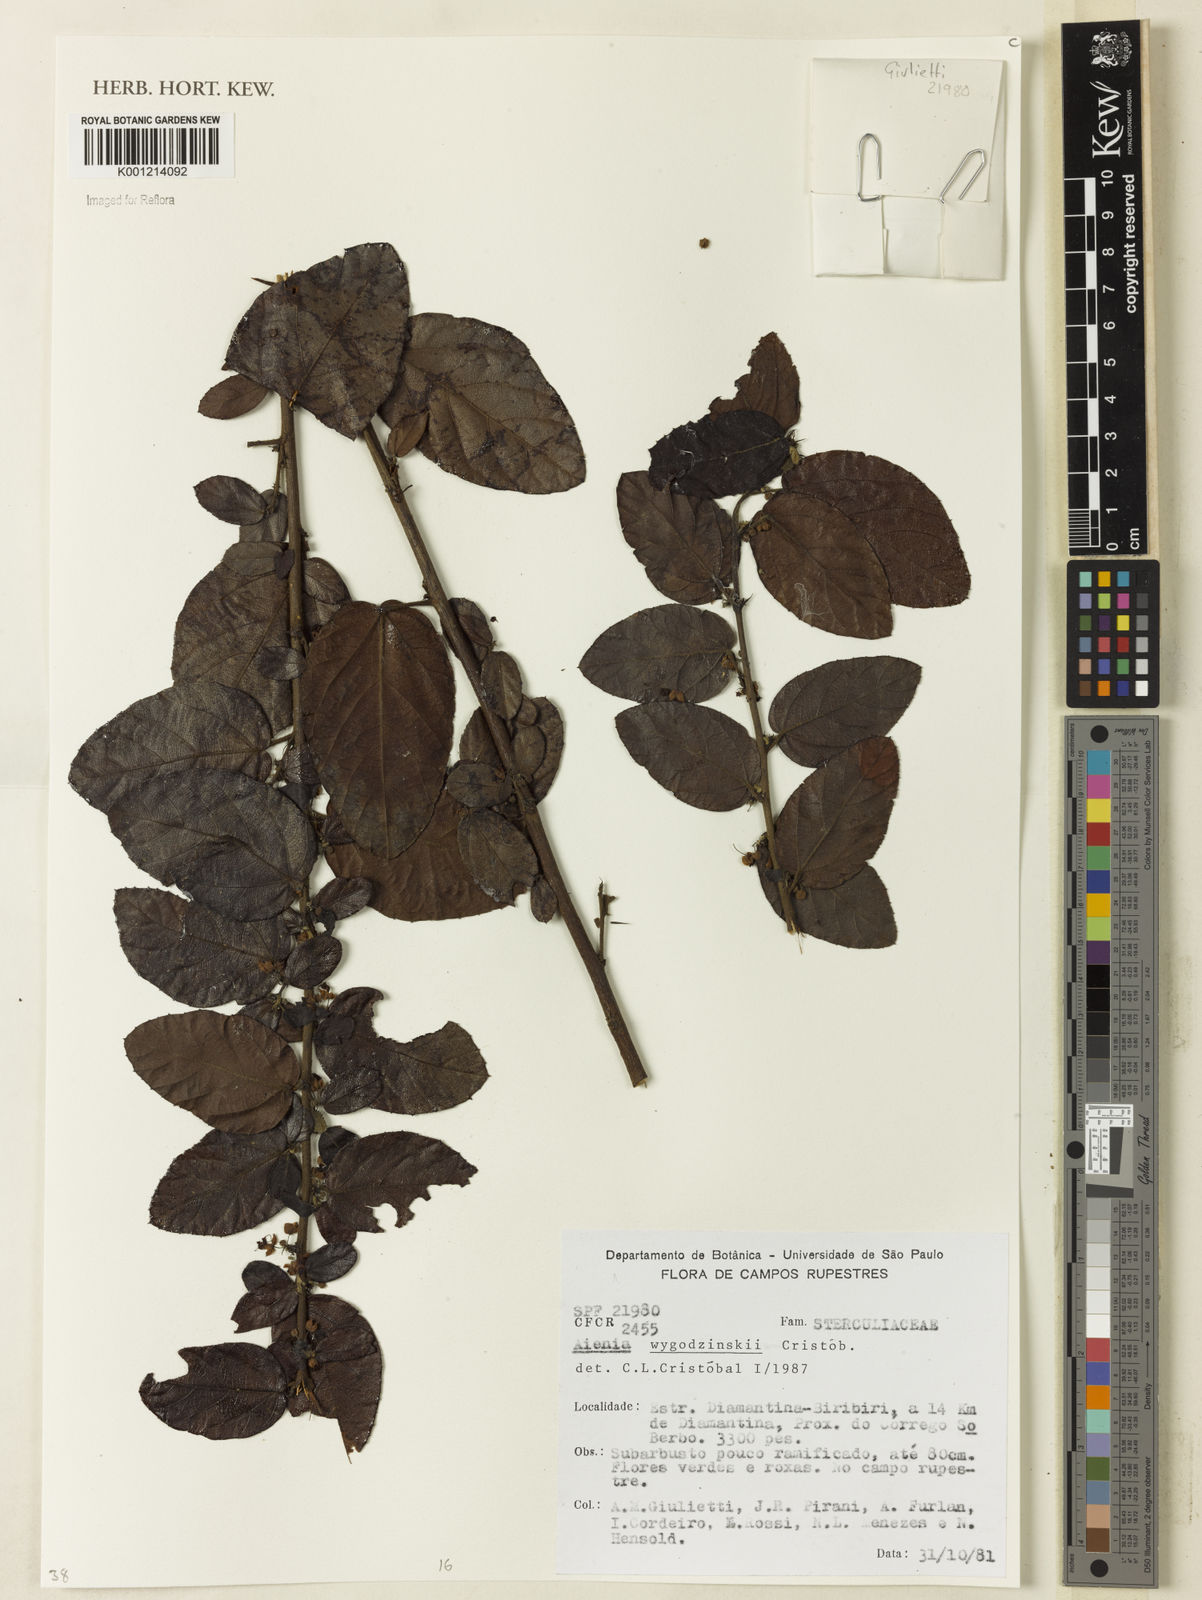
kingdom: Plantae
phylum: Tracheophyta
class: Magnoliopsida
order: Malvales
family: Malvaceae
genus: Ayenia
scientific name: Ayenia
